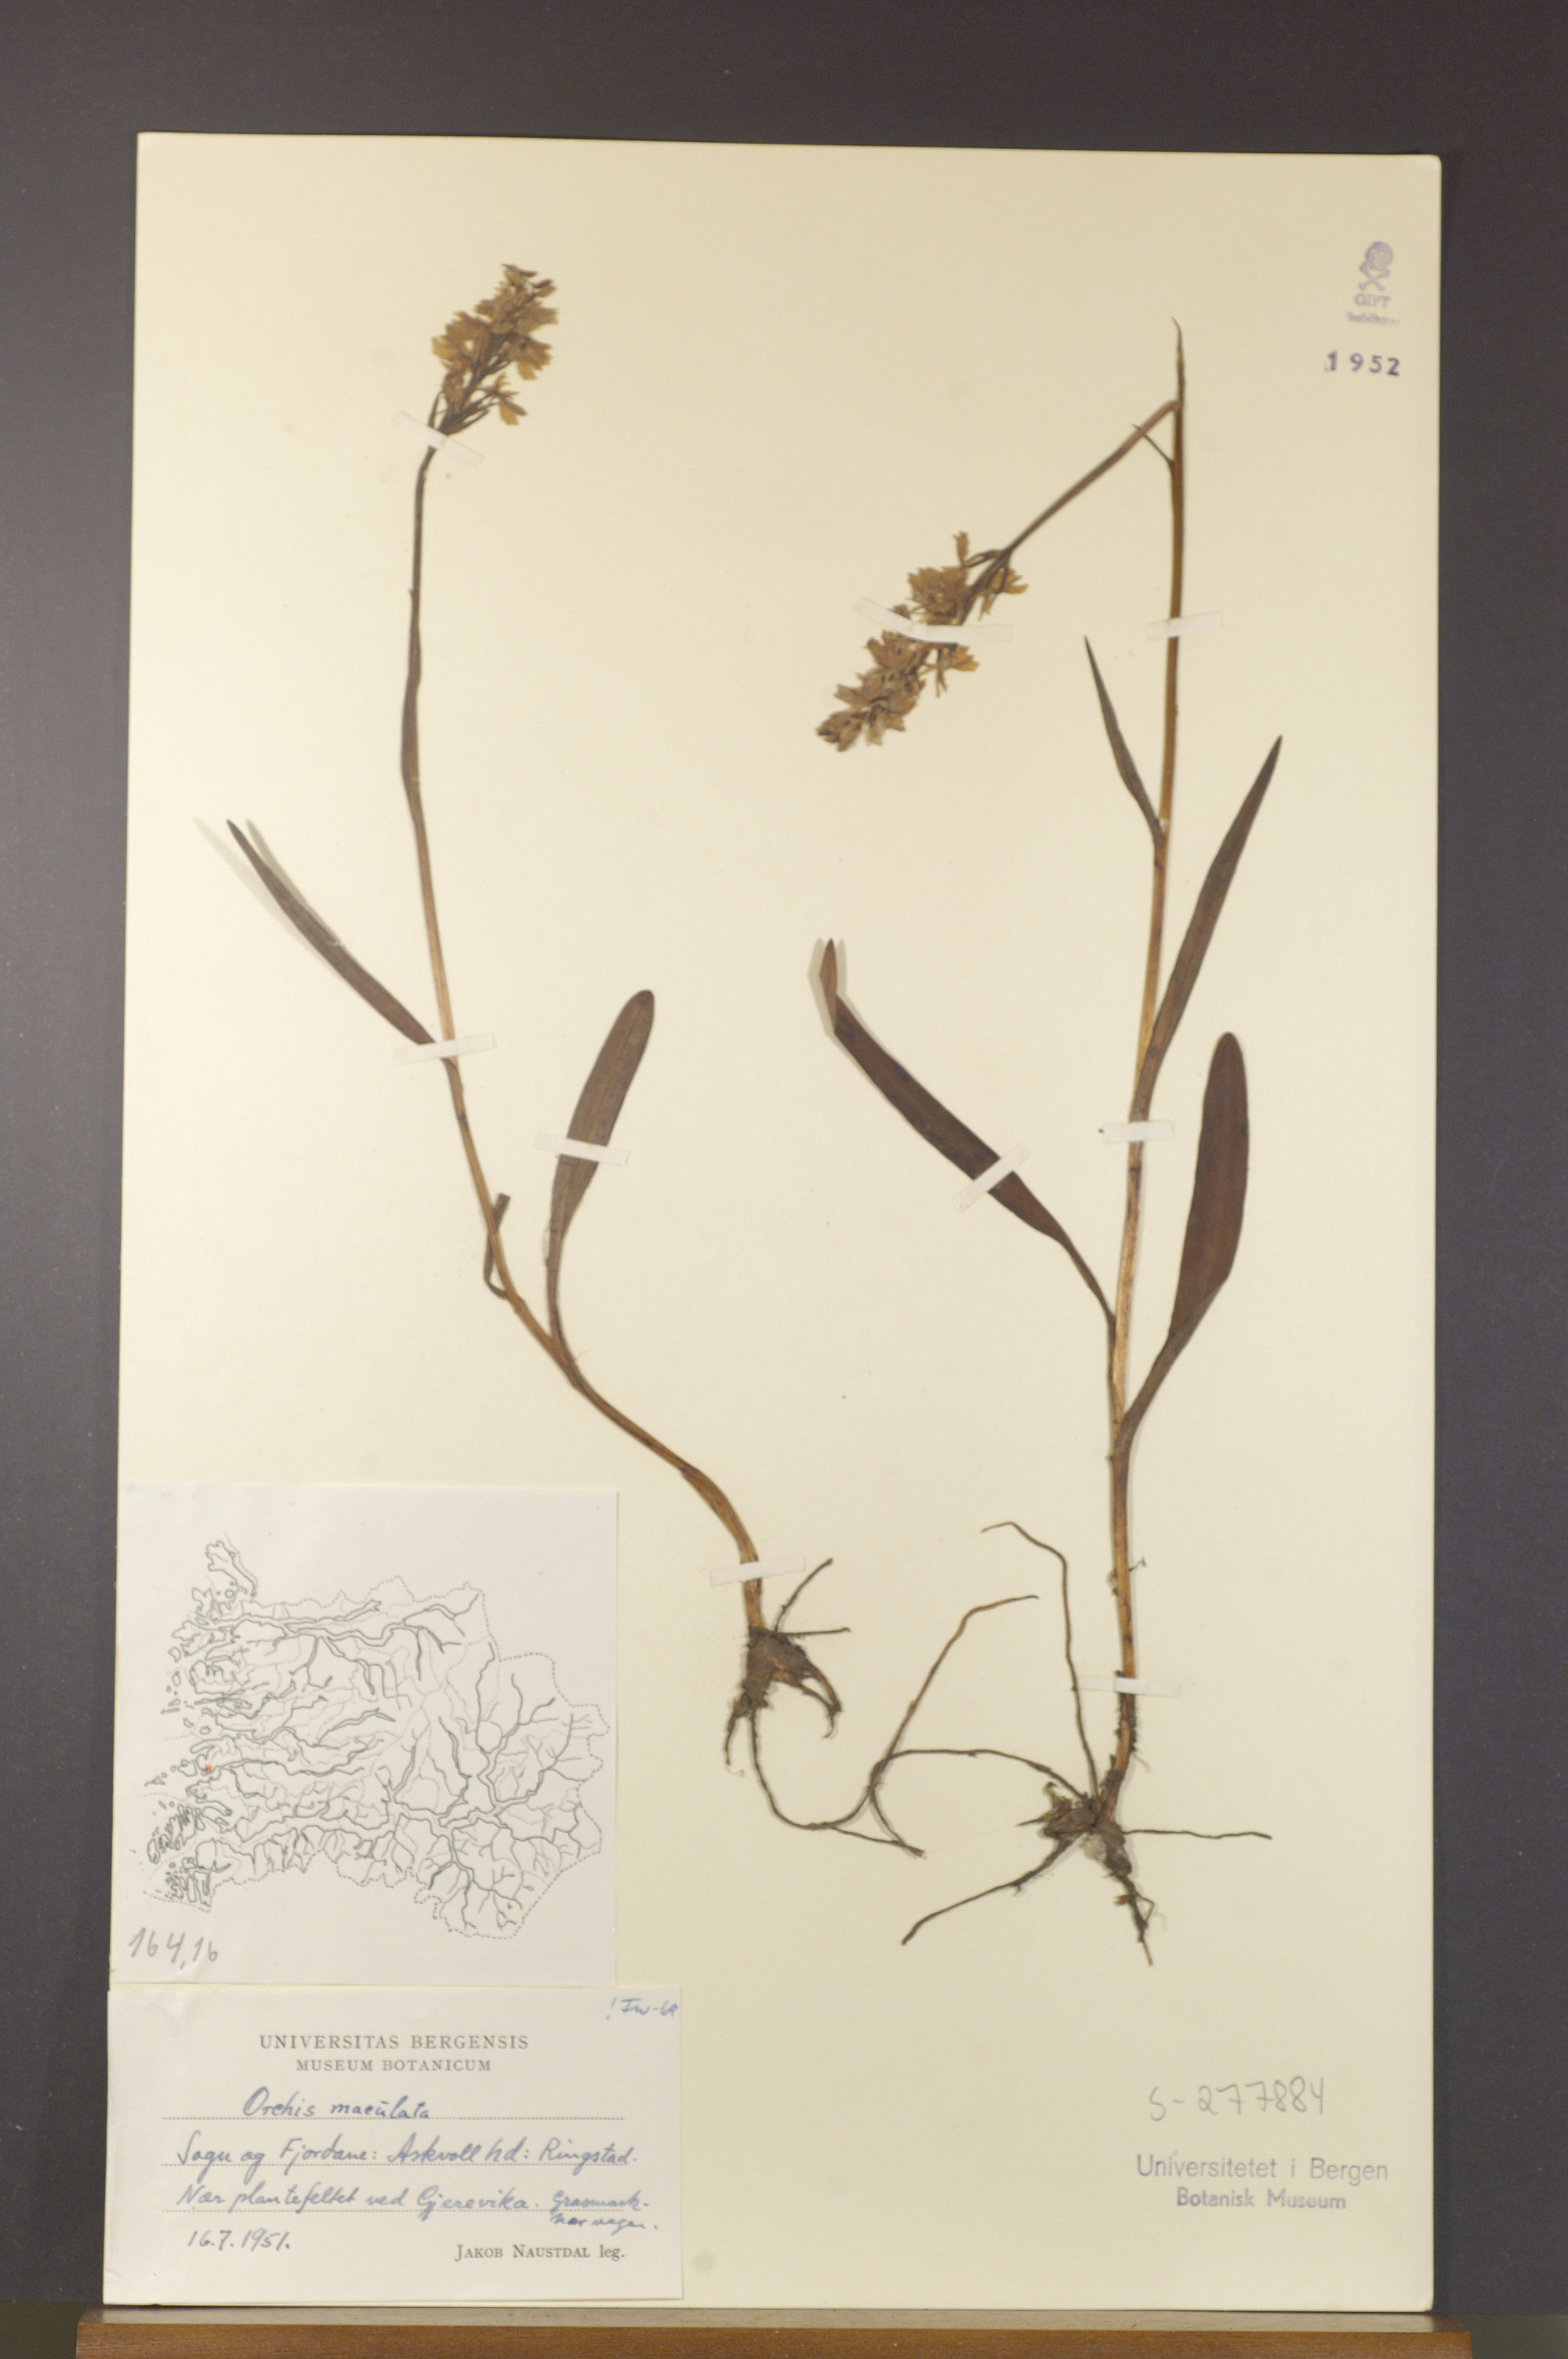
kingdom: Plantae
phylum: Tracheophyta
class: Liliopsida
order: Asparagales
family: Orchidaceae
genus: Dactylorhiza
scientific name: Dactylorhiza maculata
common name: Heath spotted-orchid
